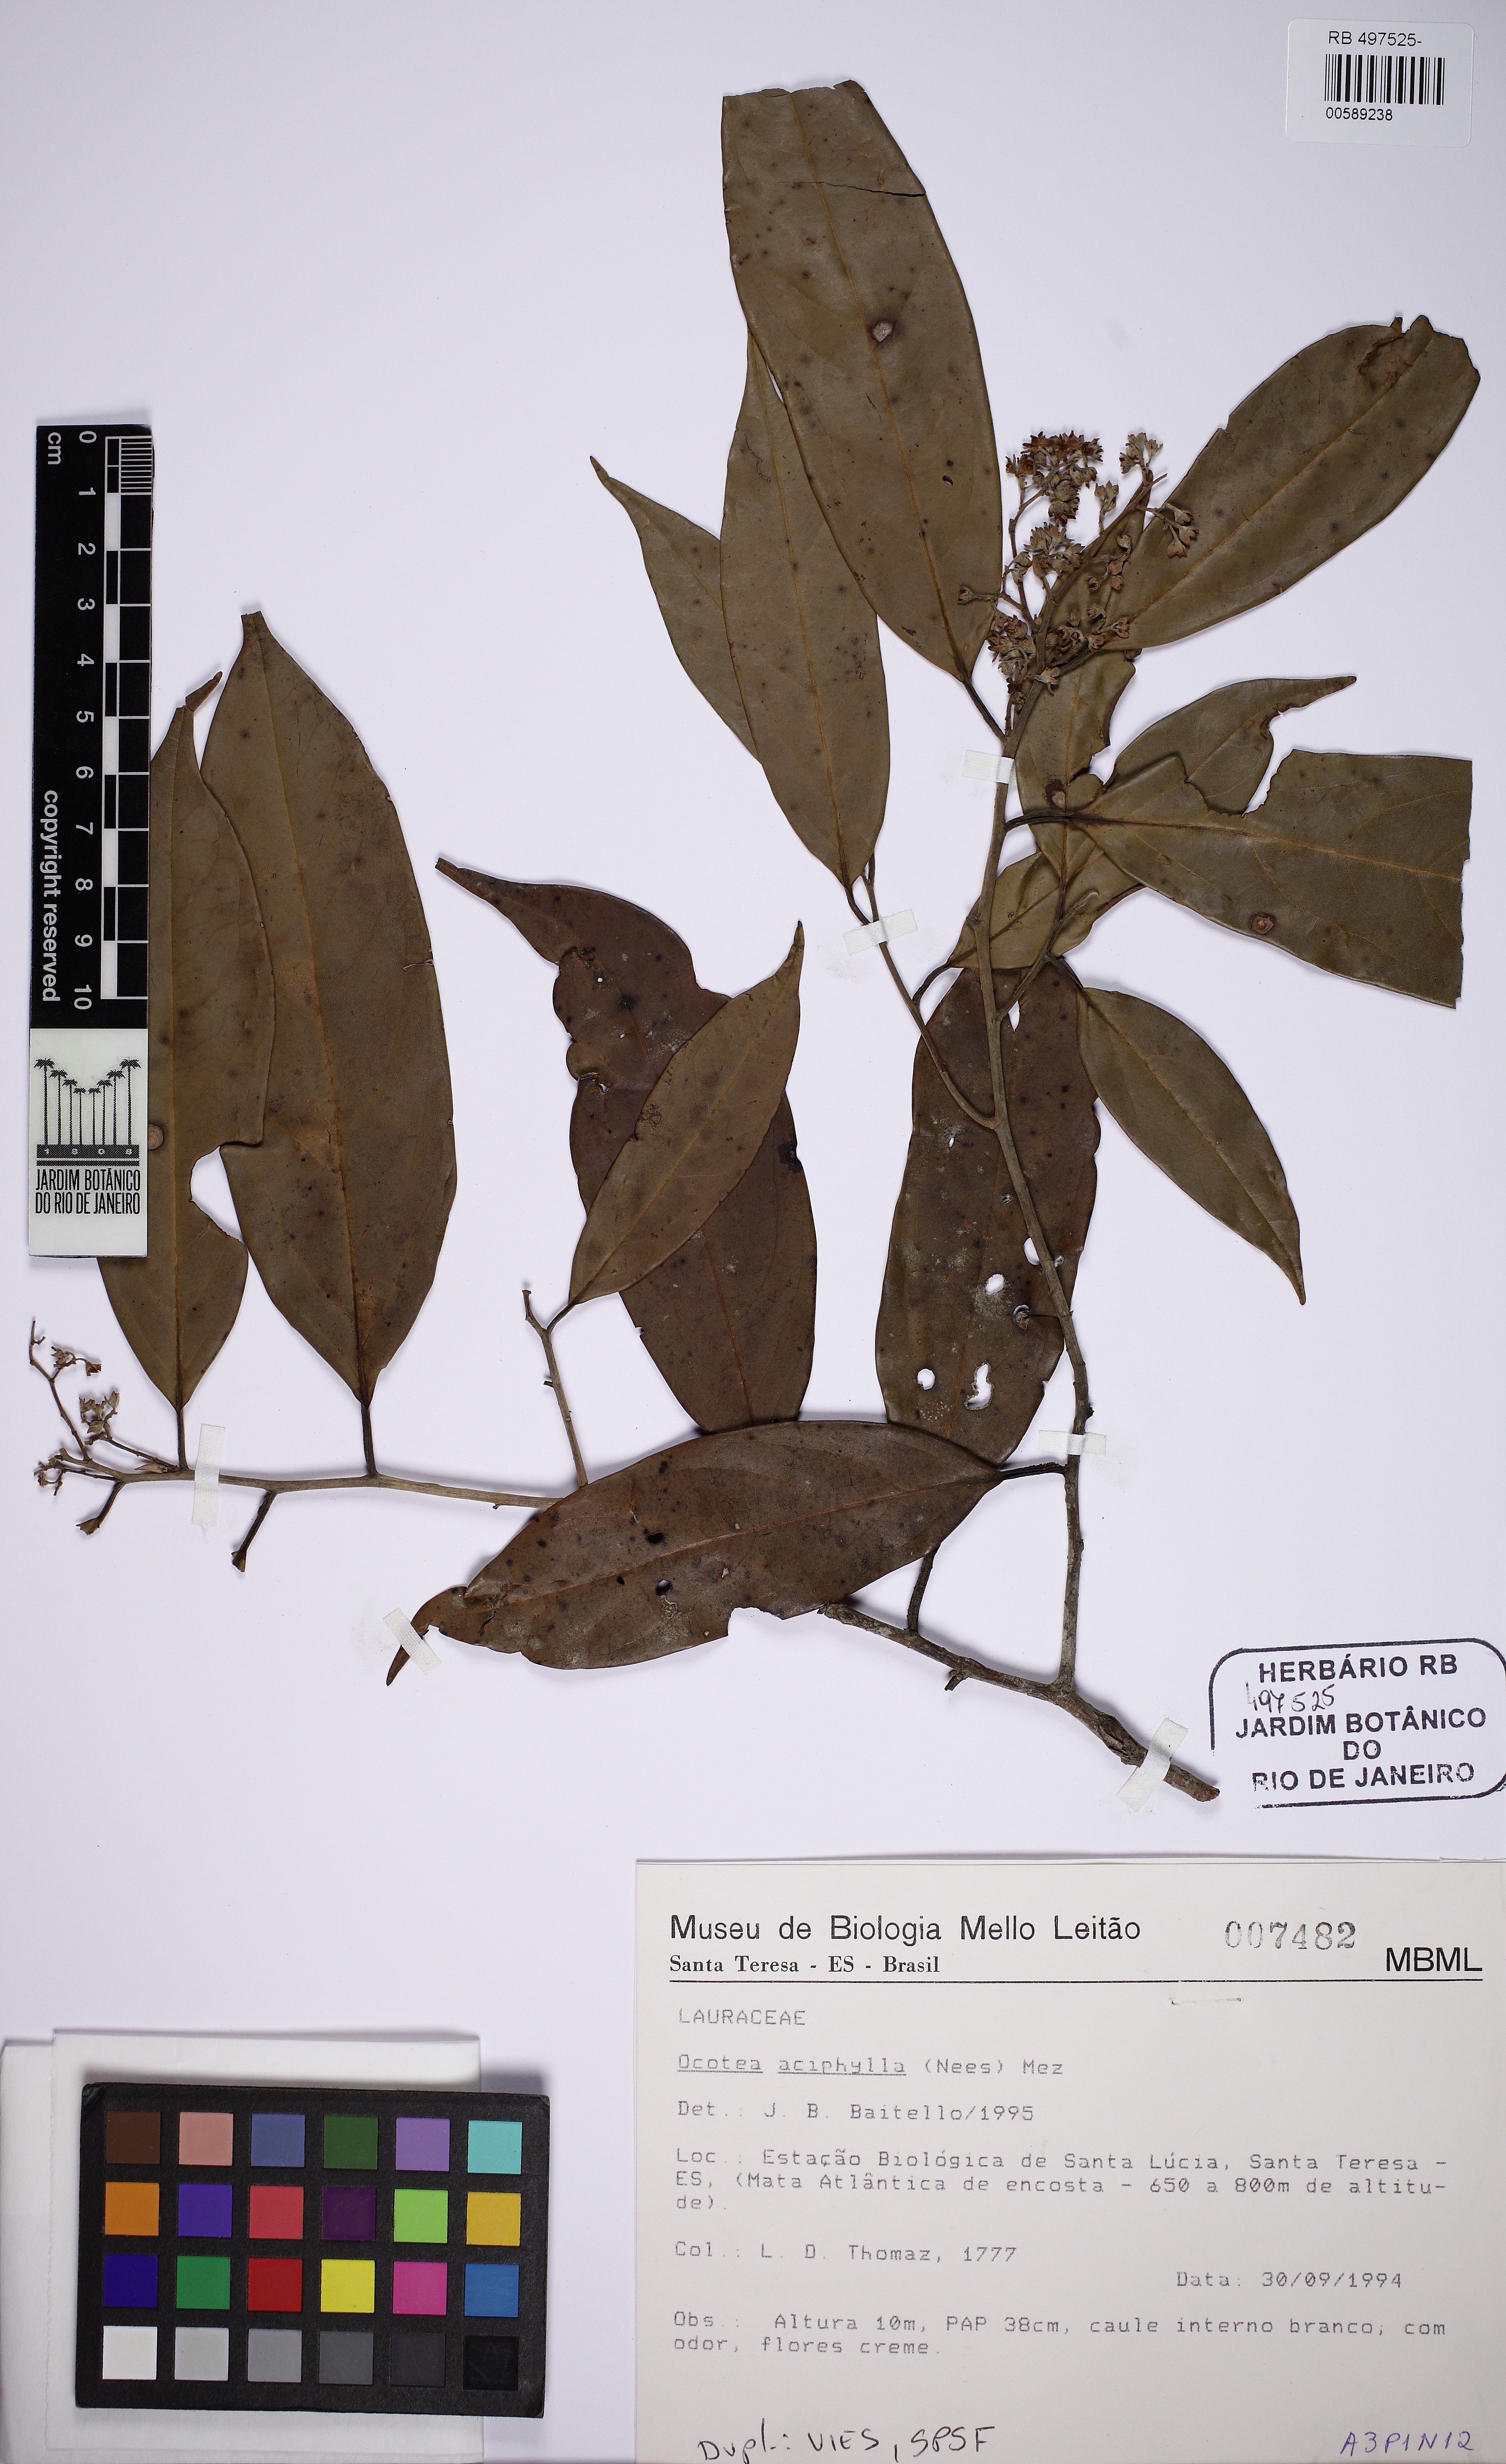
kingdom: Plantae
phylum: Tracheophyta
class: Magnoliopsida
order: Laurales
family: Lauraceae
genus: Ocotea
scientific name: Ocotea aciphylla
